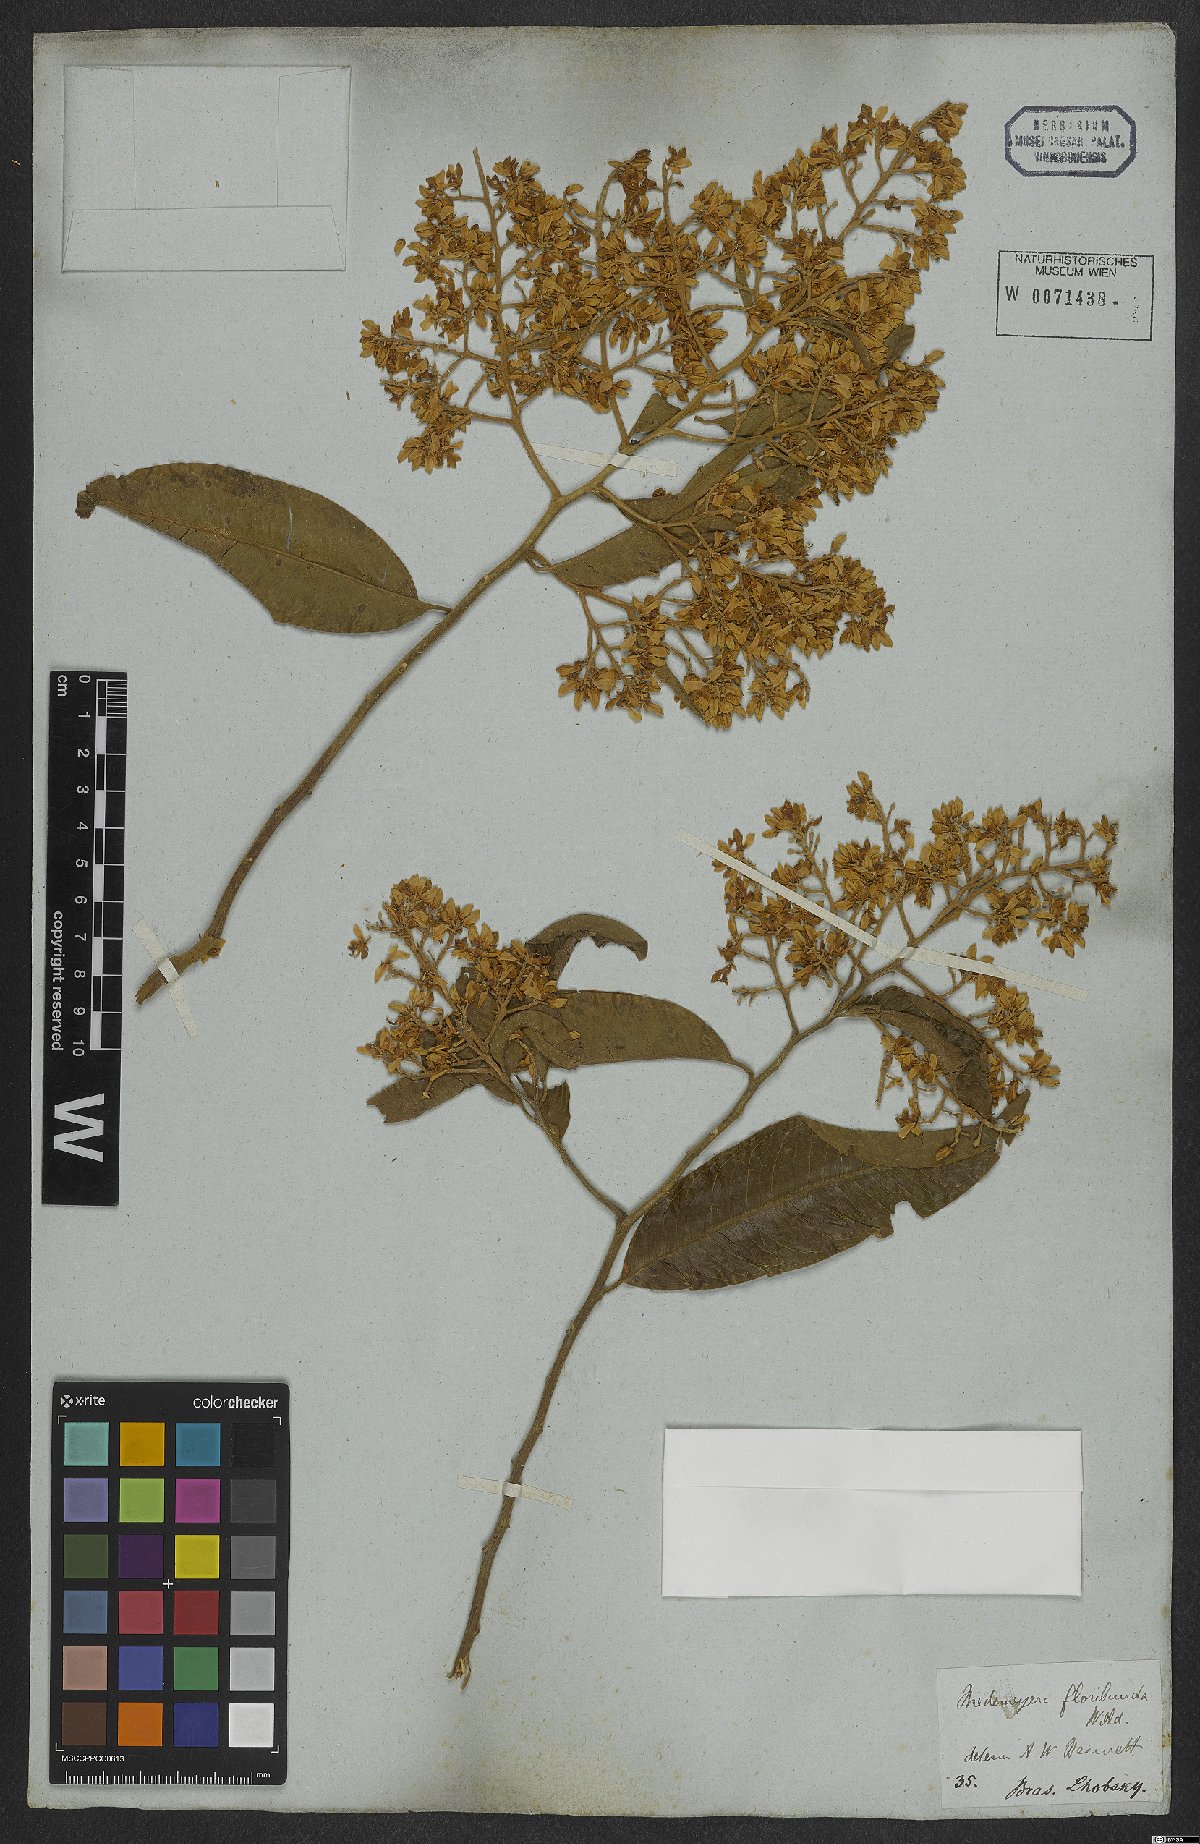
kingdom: Plantae
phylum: Tracheophyta
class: Magnoliopsida
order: Fabales
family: Polygalaceae
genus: Bredemeyera
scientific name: Bredemeyera floribunda
